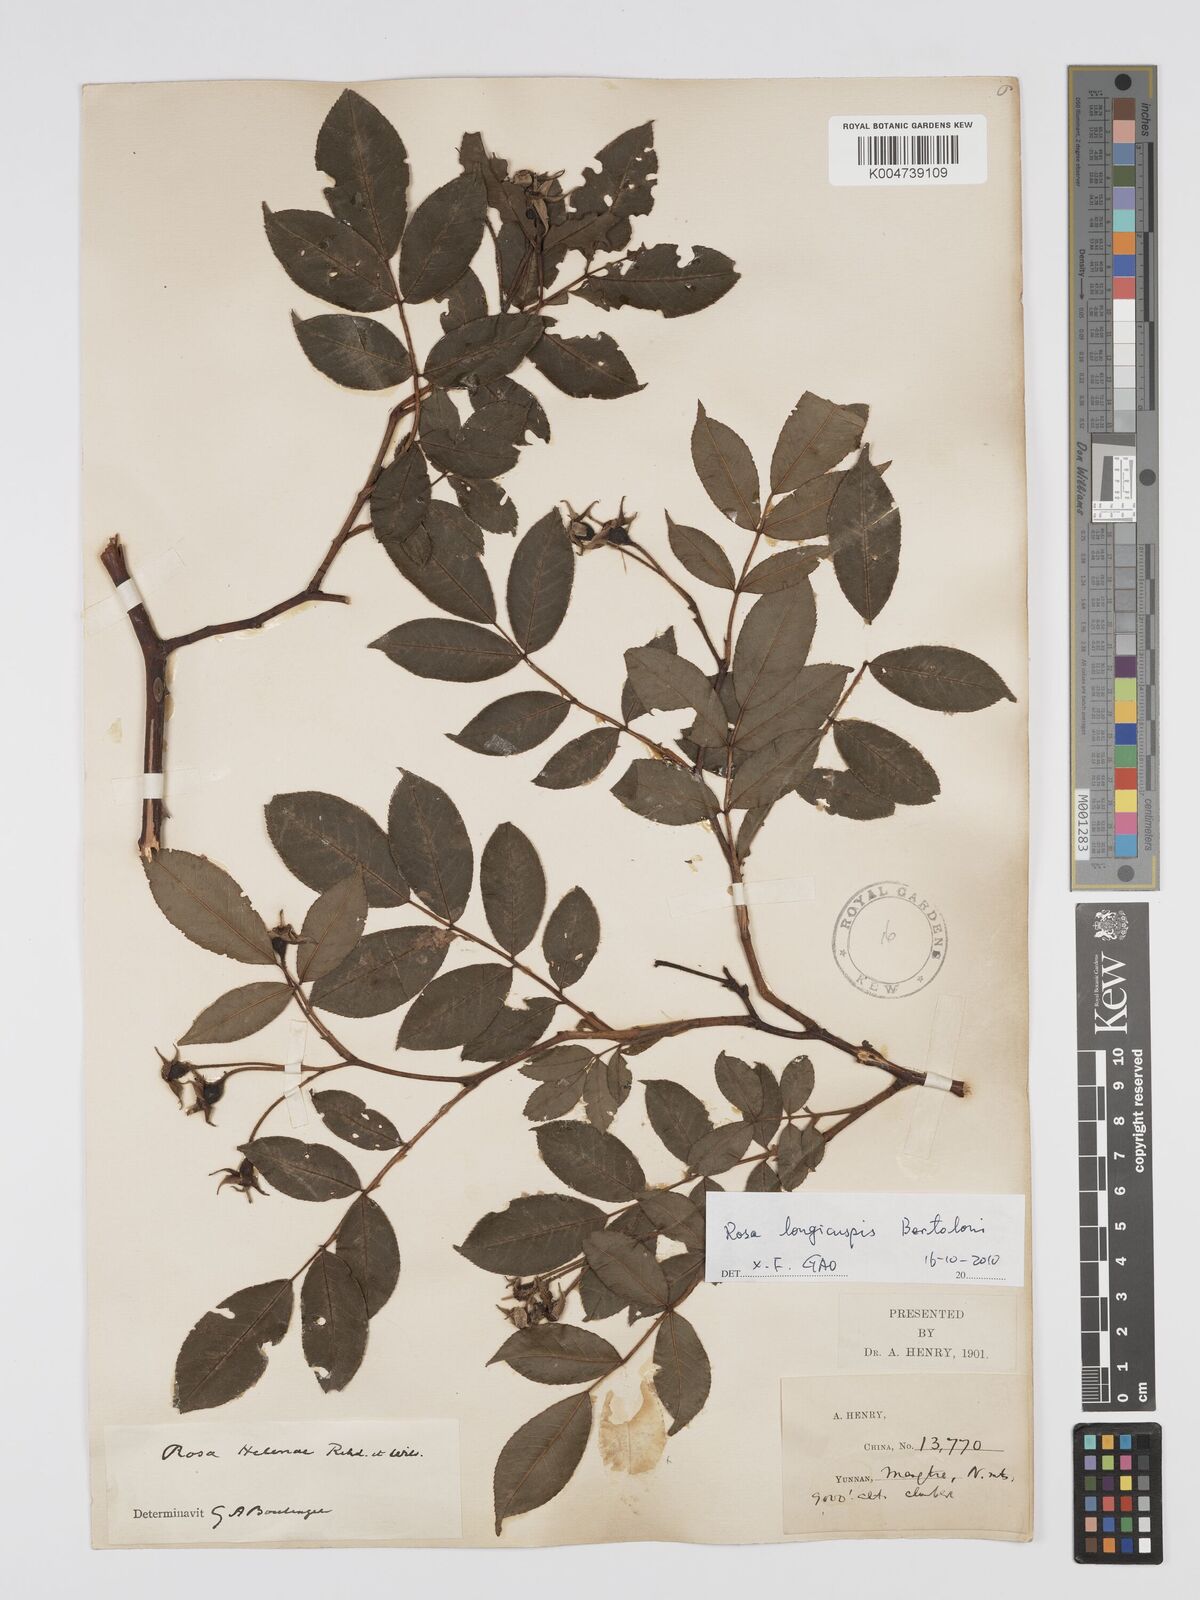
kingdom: Plantae
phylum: Tracheophyta
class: Magnoliopsida
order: Rosales
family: Rosaceae
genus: Rosa
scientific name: Rosa longicuspis
